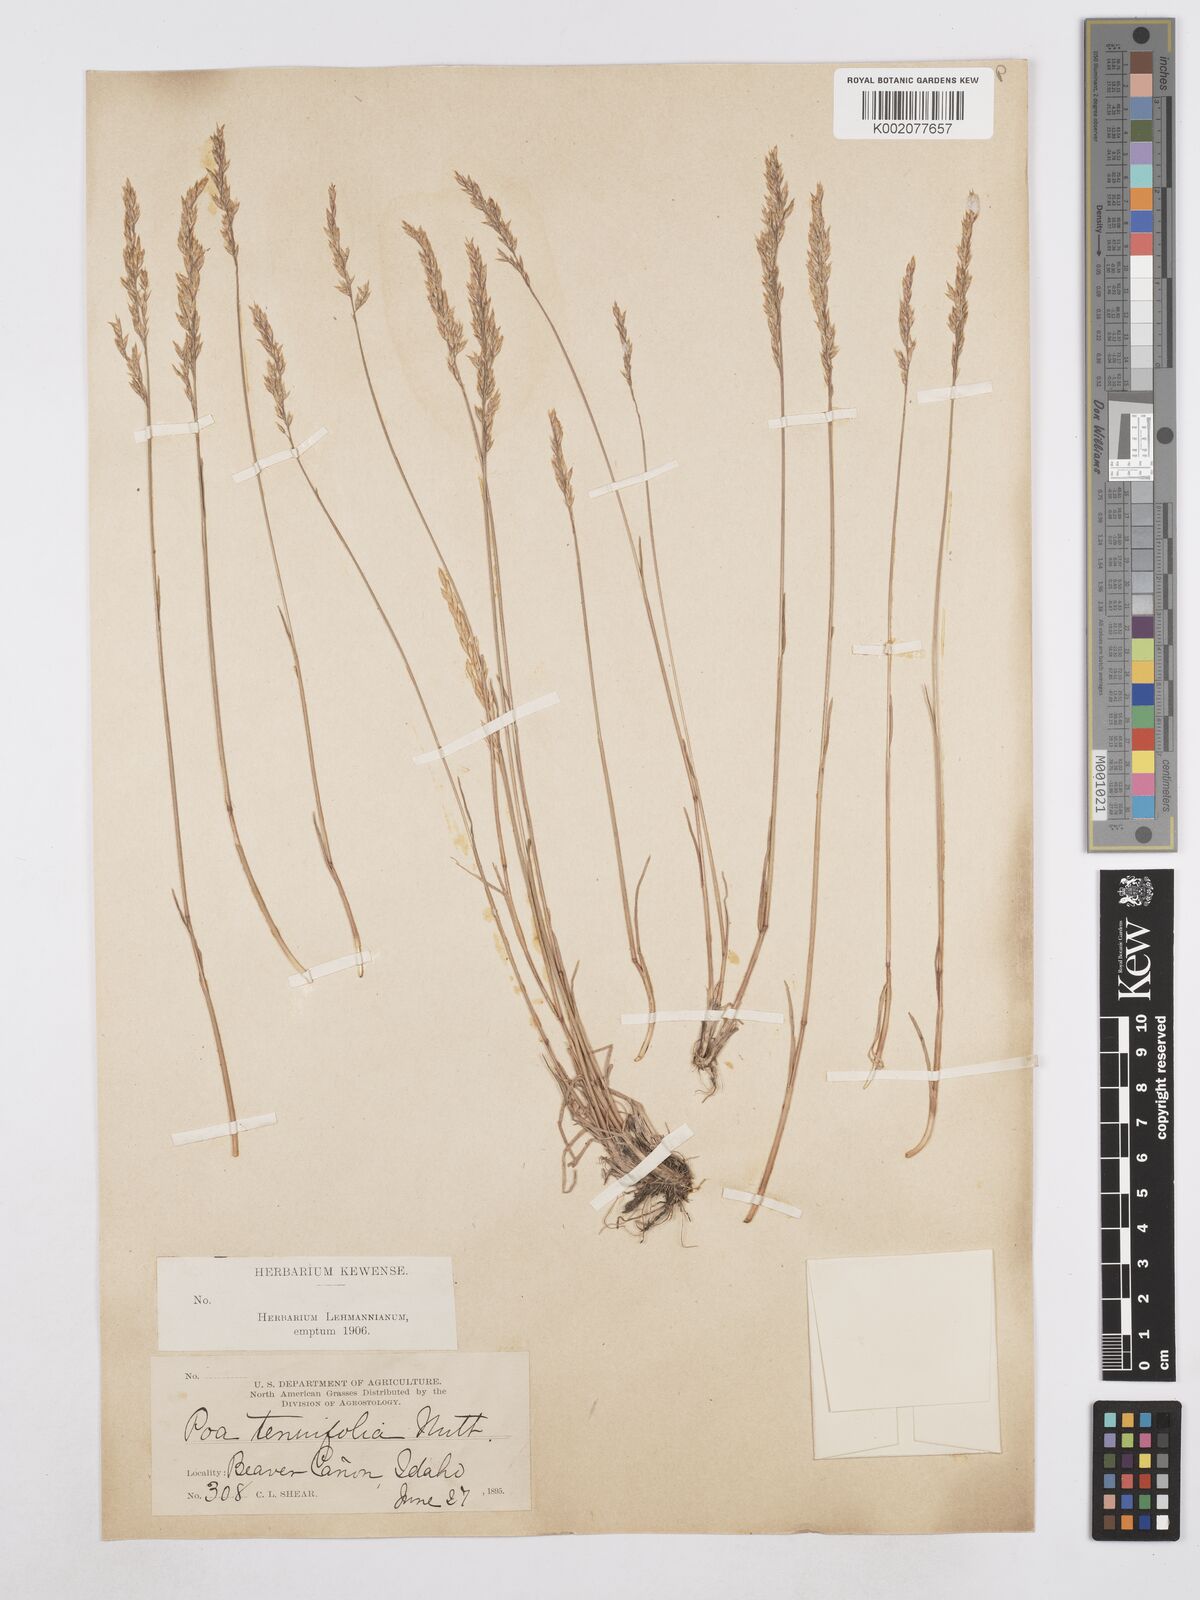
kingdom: Plantae
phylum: Tracheophyta
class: Liliopsida
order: Poales
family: Poaceae
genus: Poa
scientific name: Poa secunda
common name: Sandberg bluegrass
